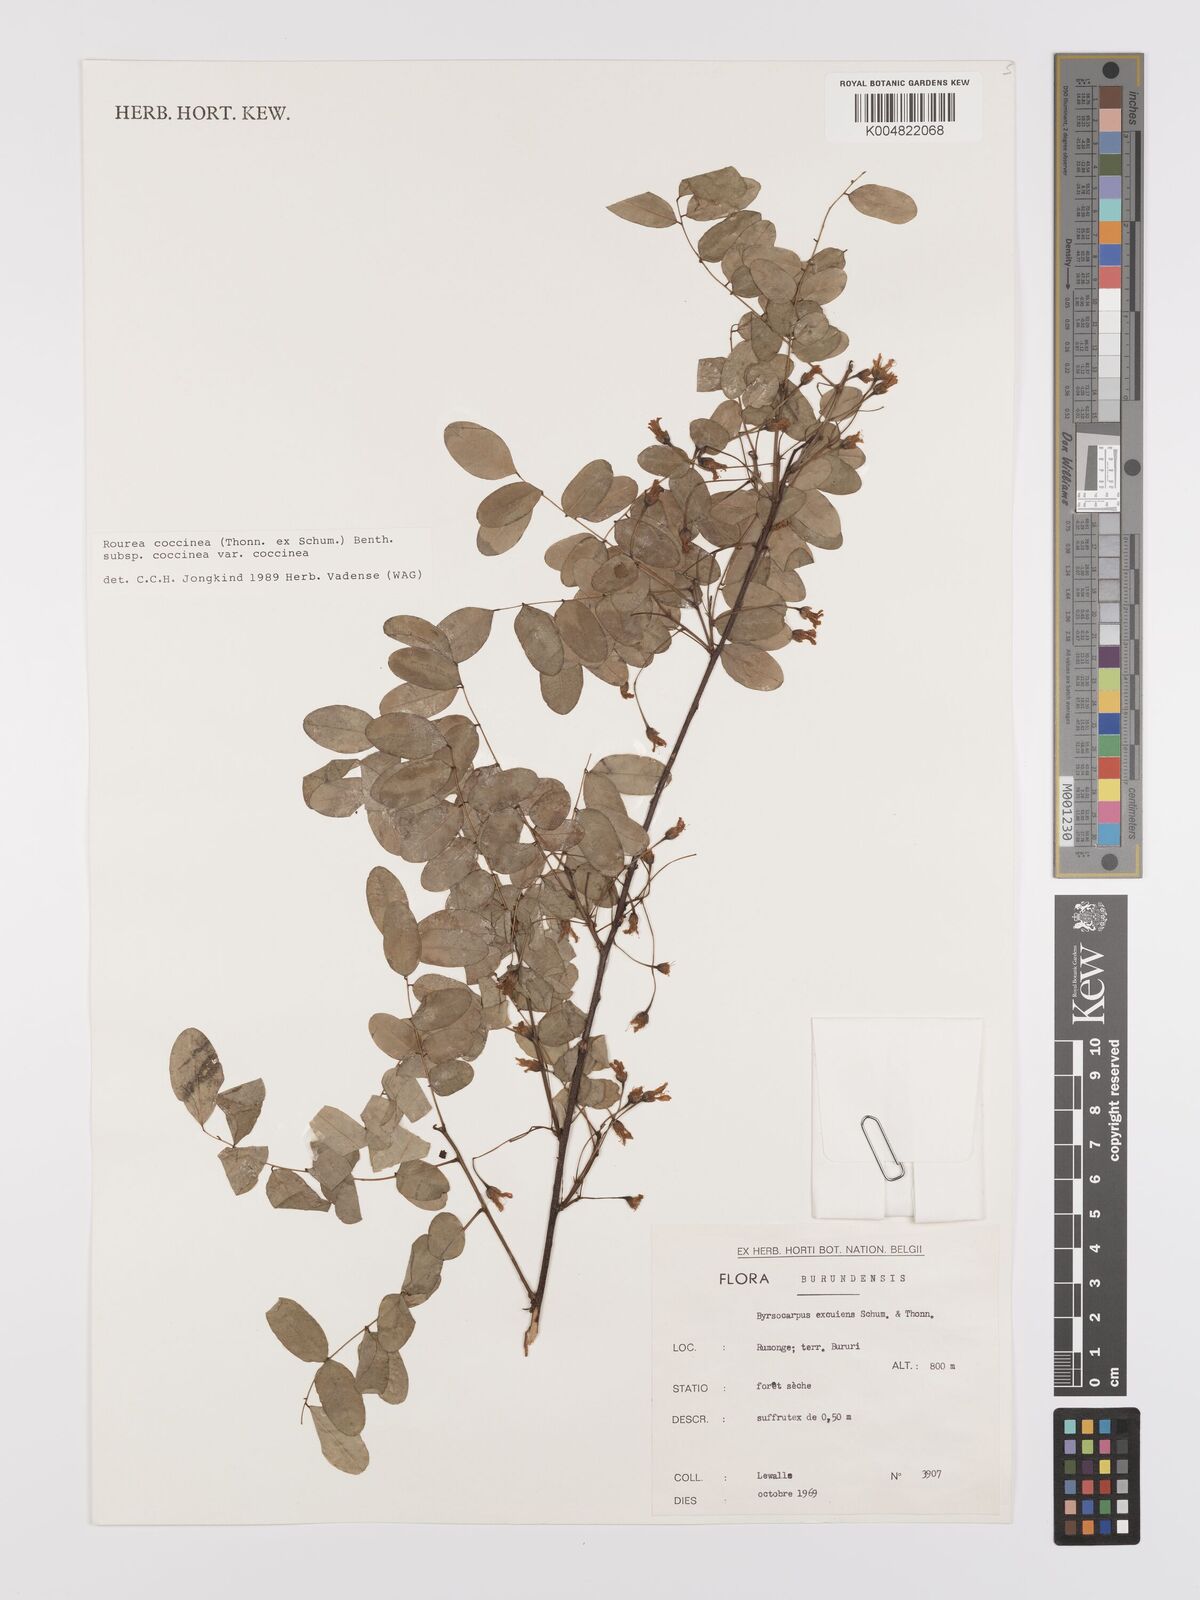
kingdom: Plantae
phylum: Tracheophyta
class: Magnoliopsida
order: Oxalidales
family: Connaraceae
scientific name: Connaraceae
